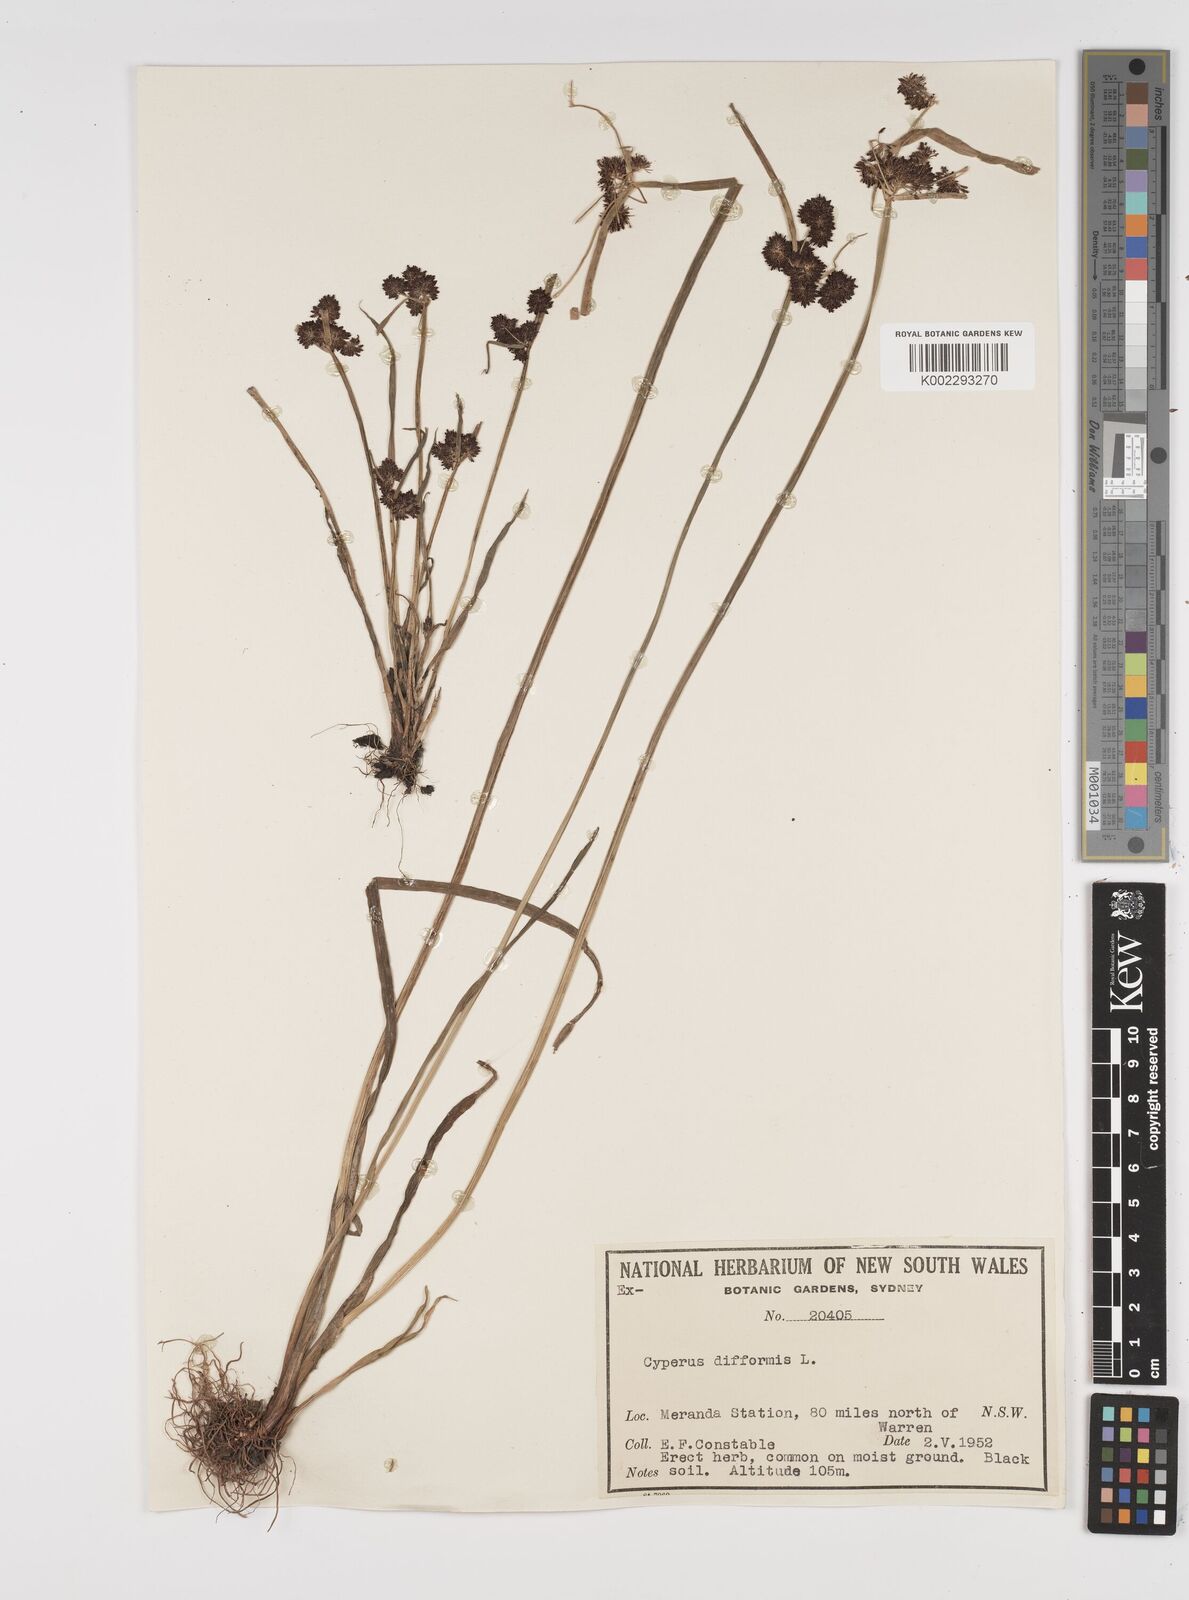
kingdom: Plantae
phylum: Tracheophyta
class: Liliopsida
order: Poales
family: Cyperaceae
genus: Cyperus
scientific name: Cyperus difformis
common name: Variable flatsedge
